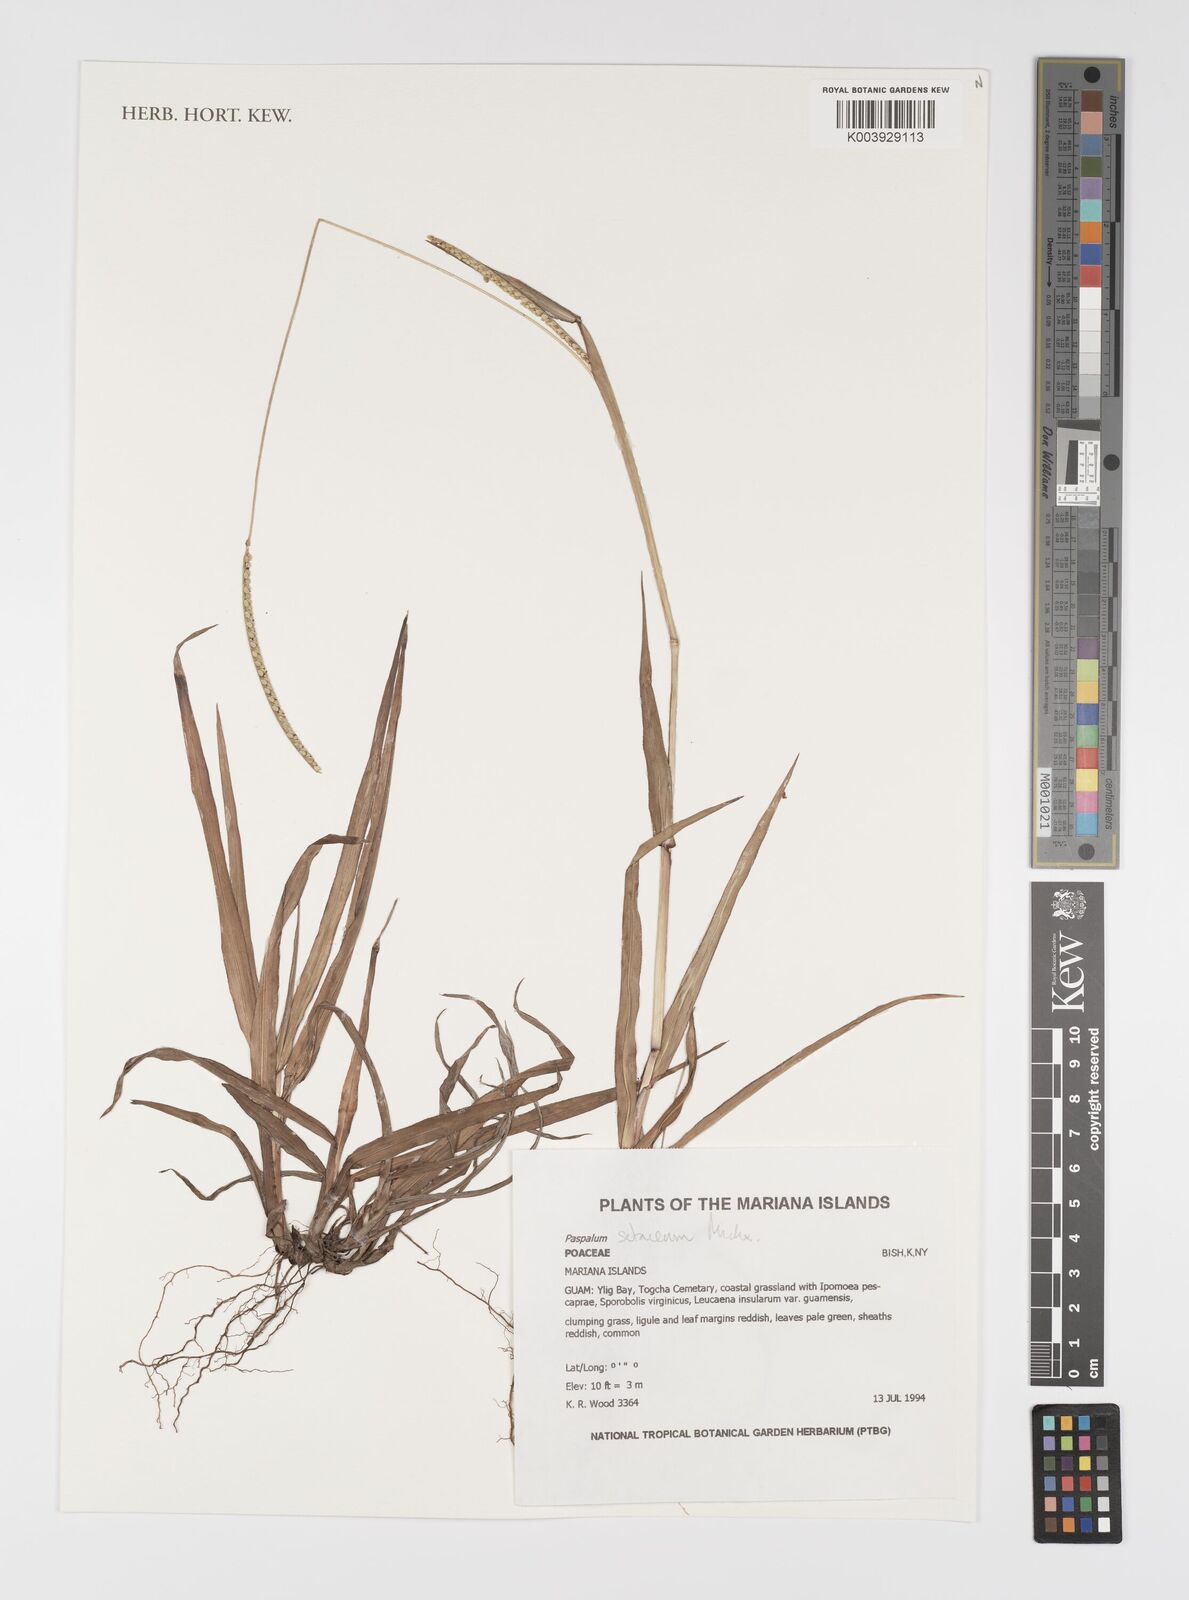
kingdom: Plantae
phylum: Tracheophyta
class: Liliopsida
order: Poales
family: Poaceae
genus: Paspalum
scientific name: Paspalum setaceum
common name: Slender paspalum
